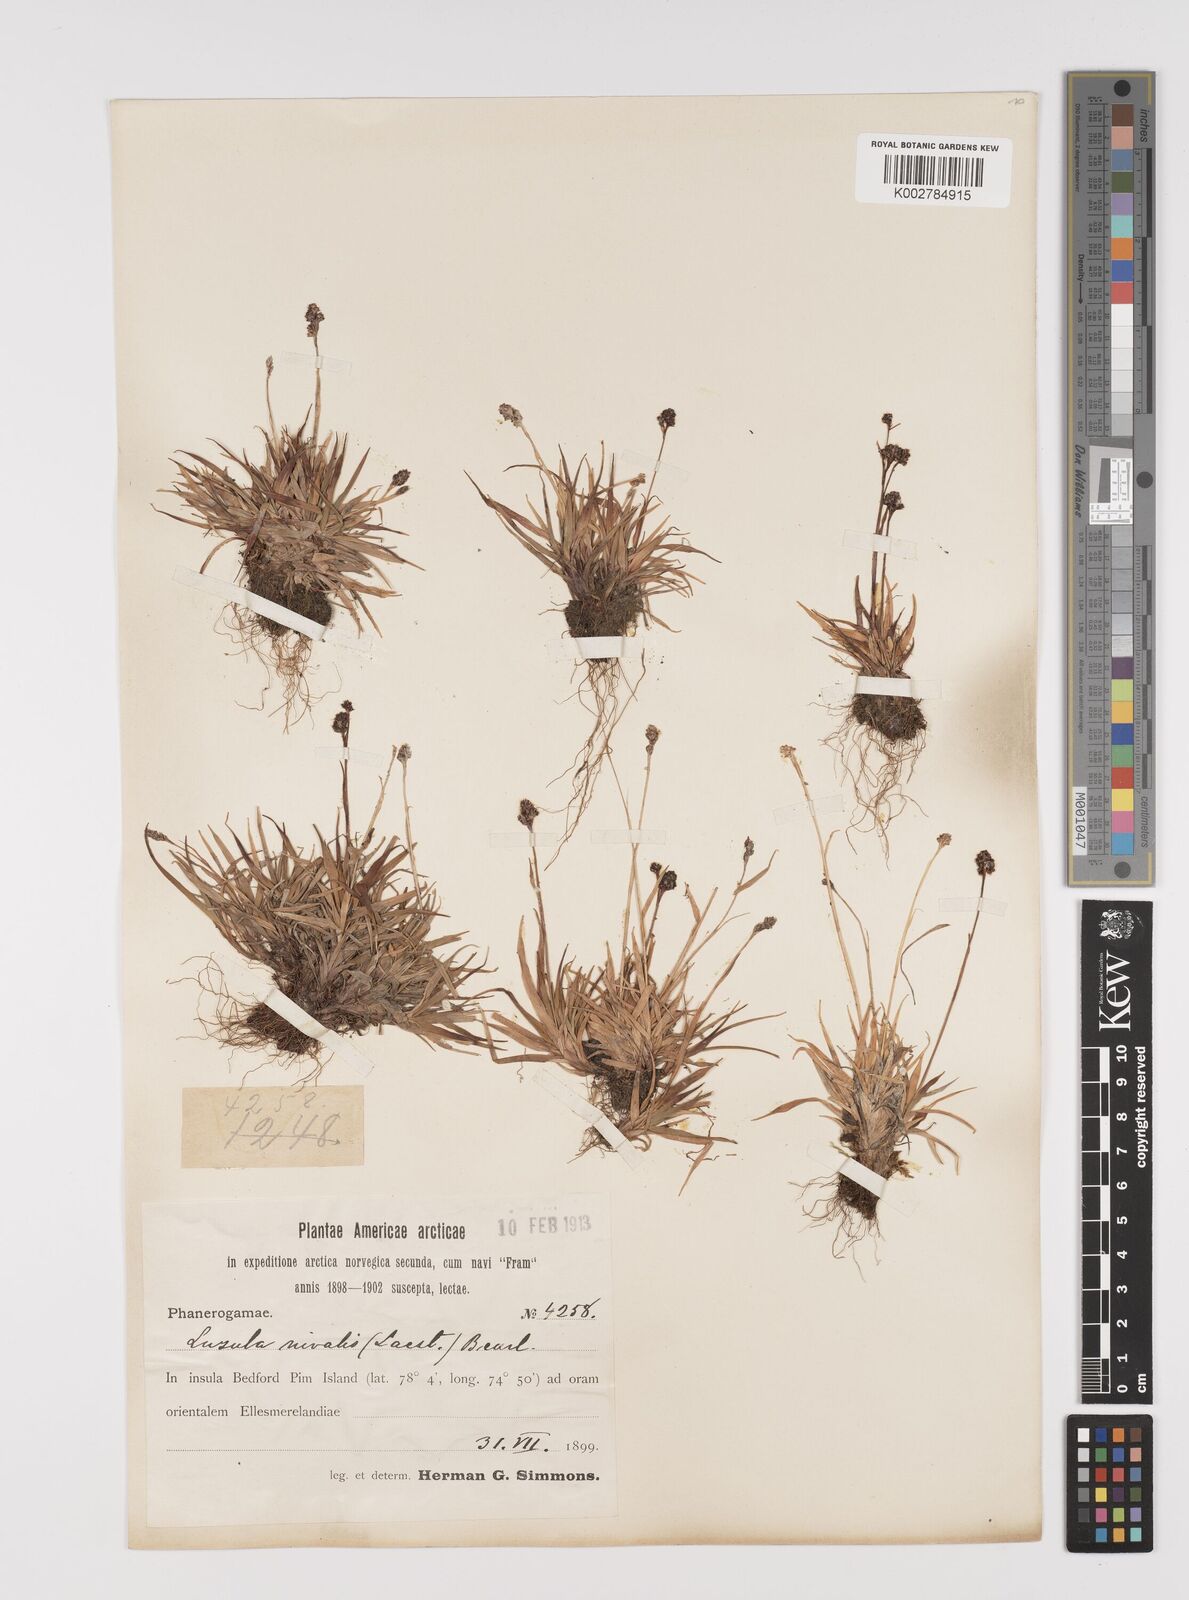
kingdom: Plantae
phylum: Tracheophyta
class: Liliopsida
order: Poales
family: Juncaceae
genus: Luzula
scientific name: Luzula nivalis
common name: Arctic woodrush
